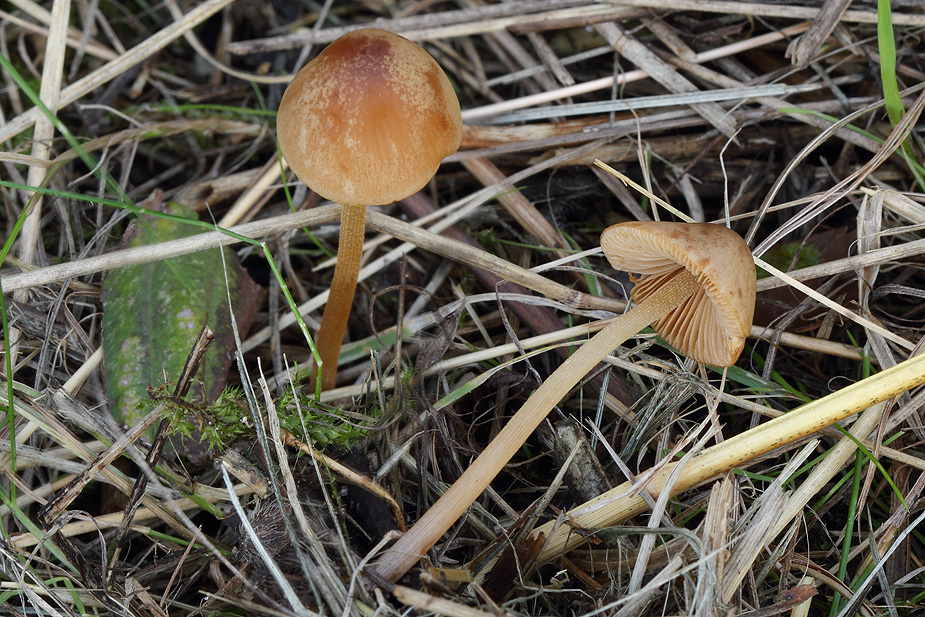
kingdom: Fungi
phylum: Basidiomycota
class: Agaricomycetes
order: Agaricales
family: Bolbitiaceae
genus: Conocybe
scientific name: Conocybe semiglobata
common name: halvkugleformet keglehat
